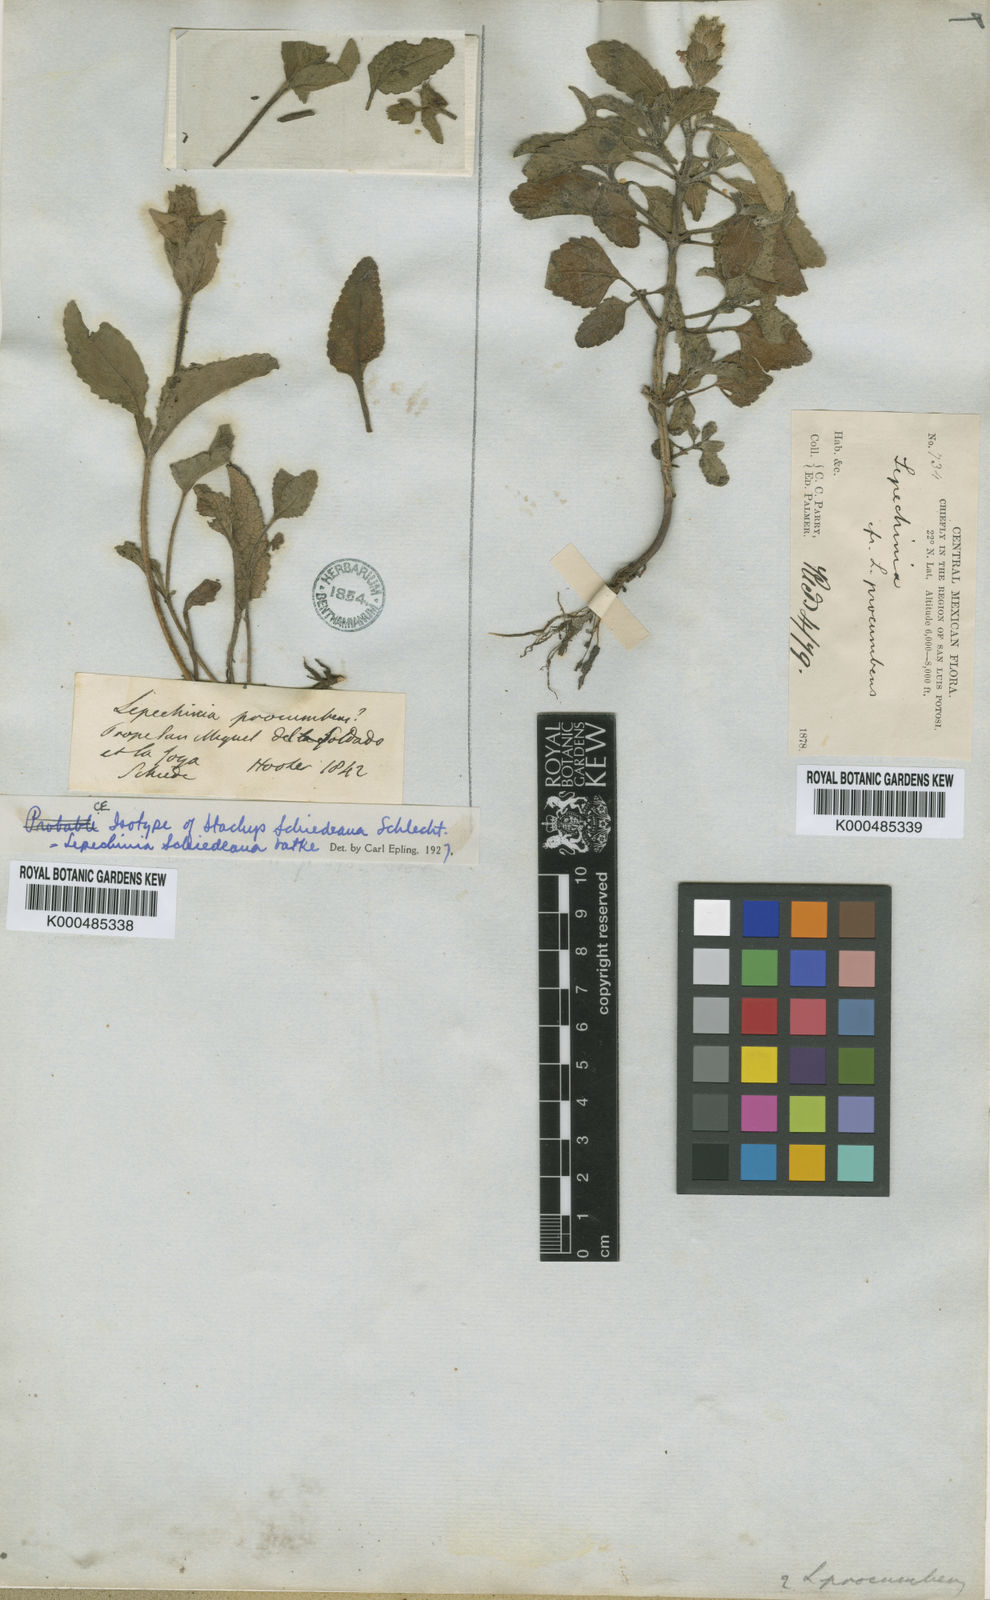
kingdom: Plantae
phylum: Tracheophyta
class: Magnoliopsida
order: Lamiales
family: Lamiaceae
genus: Lepechinia
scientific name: Lepechinia schiedeana
